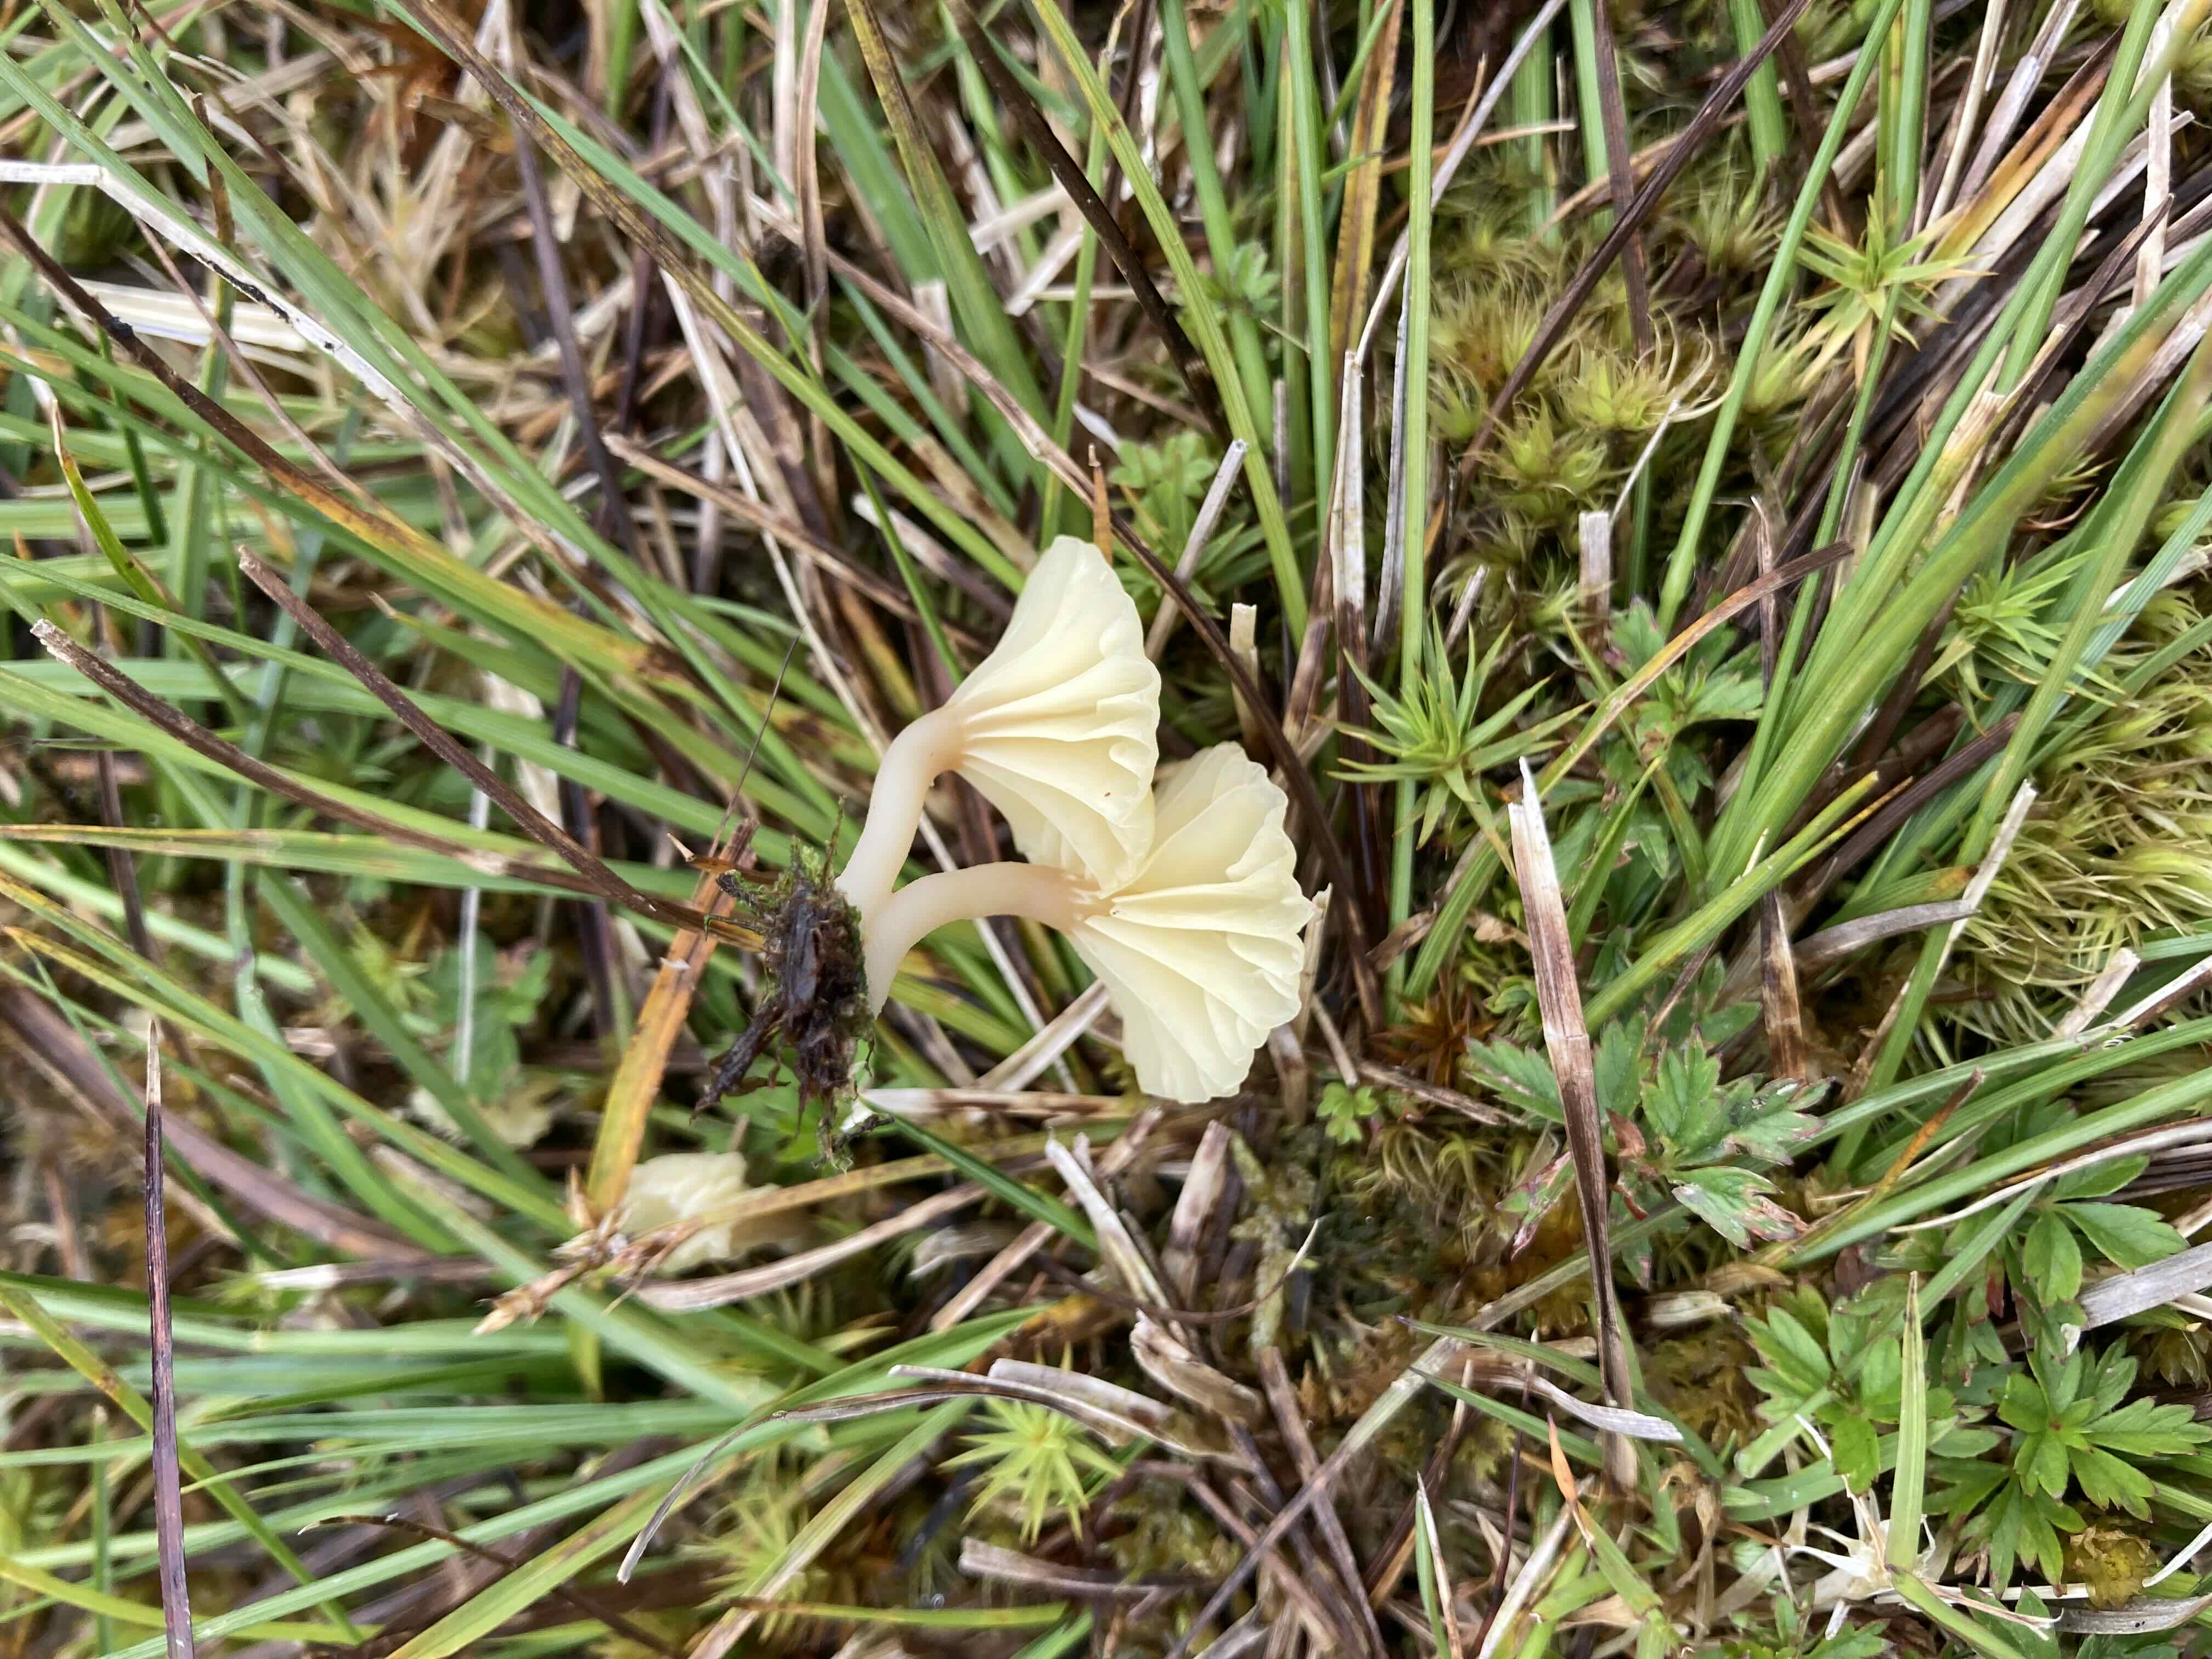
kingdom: Fungi
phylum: Basidiomycota
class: Agaricomycetes
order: Agaricales
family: Hygrophoraceae
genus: Lichenomphalia
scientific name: Lichenomphalia umbellifera
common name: tørve-lavhat
